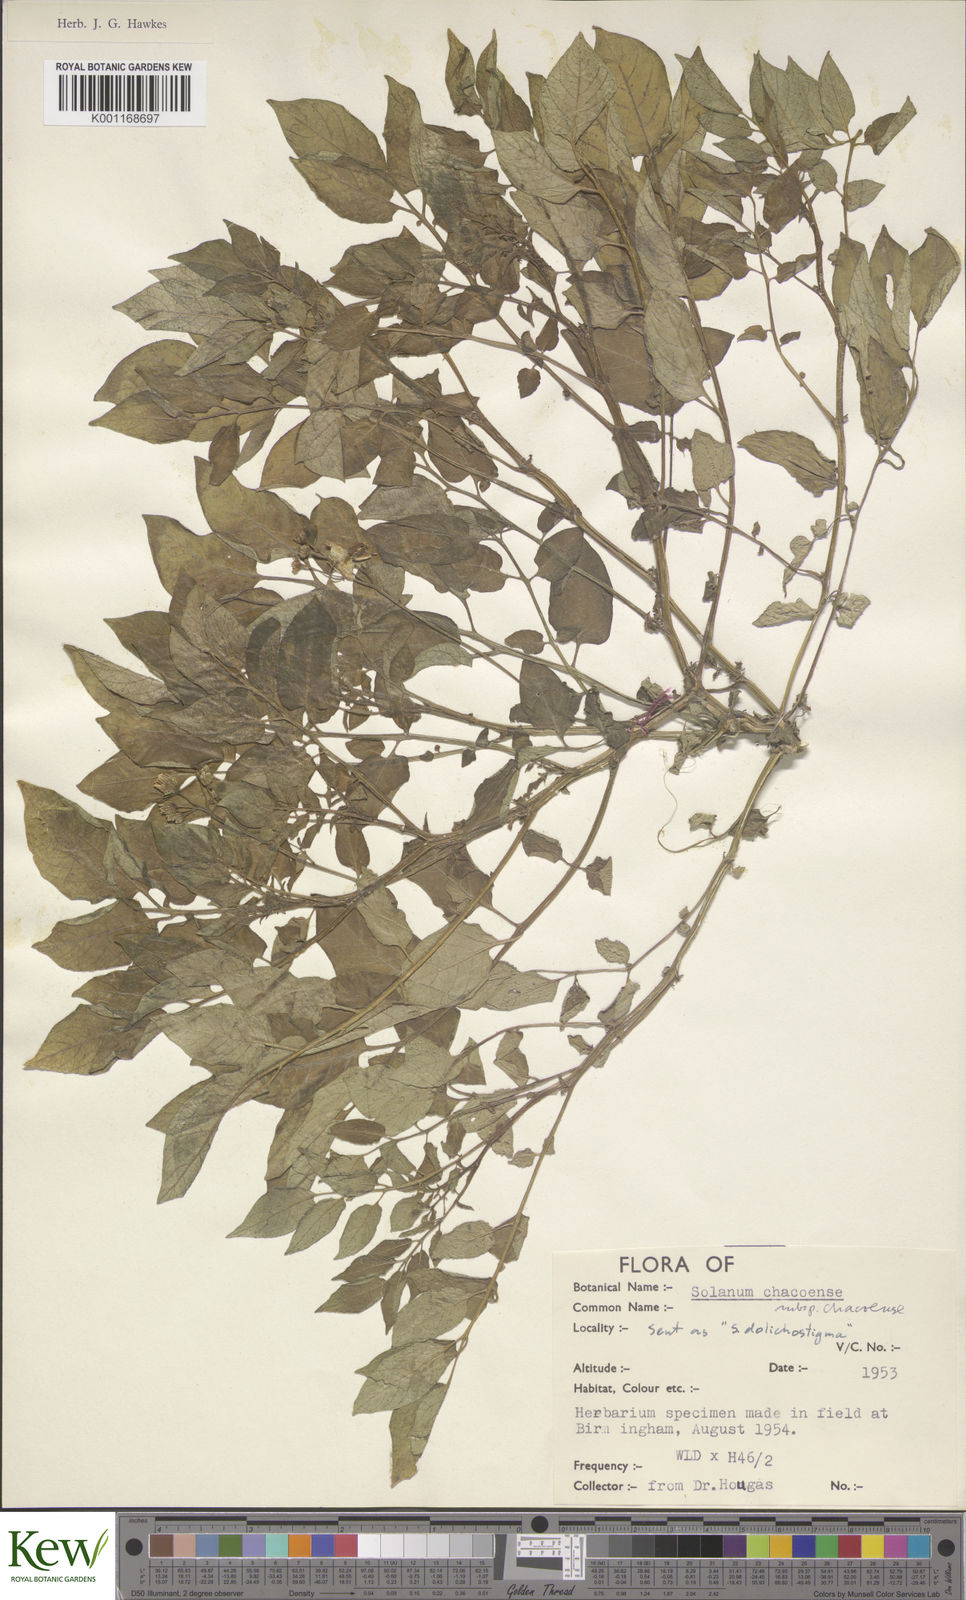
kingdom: Plantae
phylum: Tracheophyta
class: Magnoliopsida
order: Solanales
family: Solanaceae
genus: Solanum
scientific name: Solanum chacoense
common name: Chaco potato
